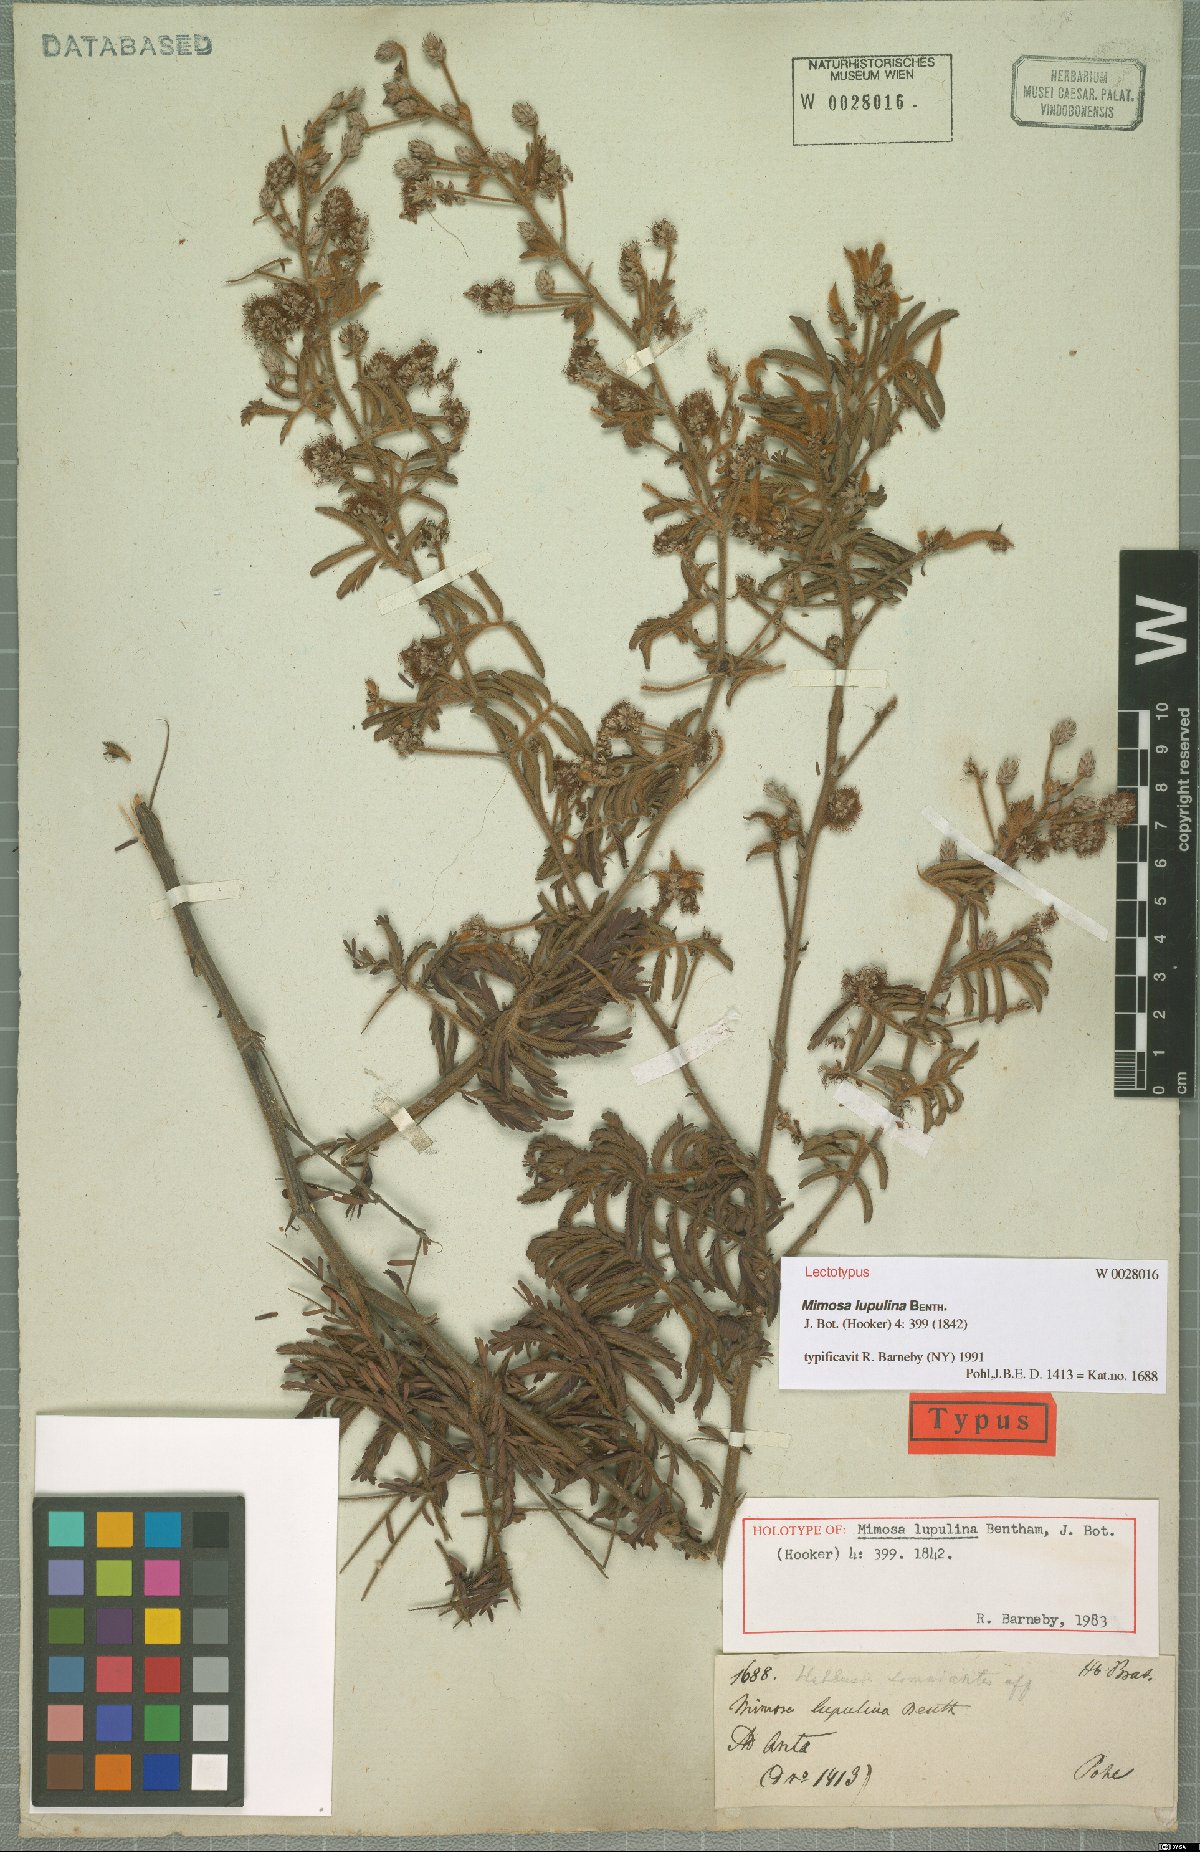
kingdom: Plantae
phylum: Tracheophyta
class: Magnoliopsida
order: Fabales
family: Fabaceae
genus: Mimosa
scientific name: Mimosa somnians
